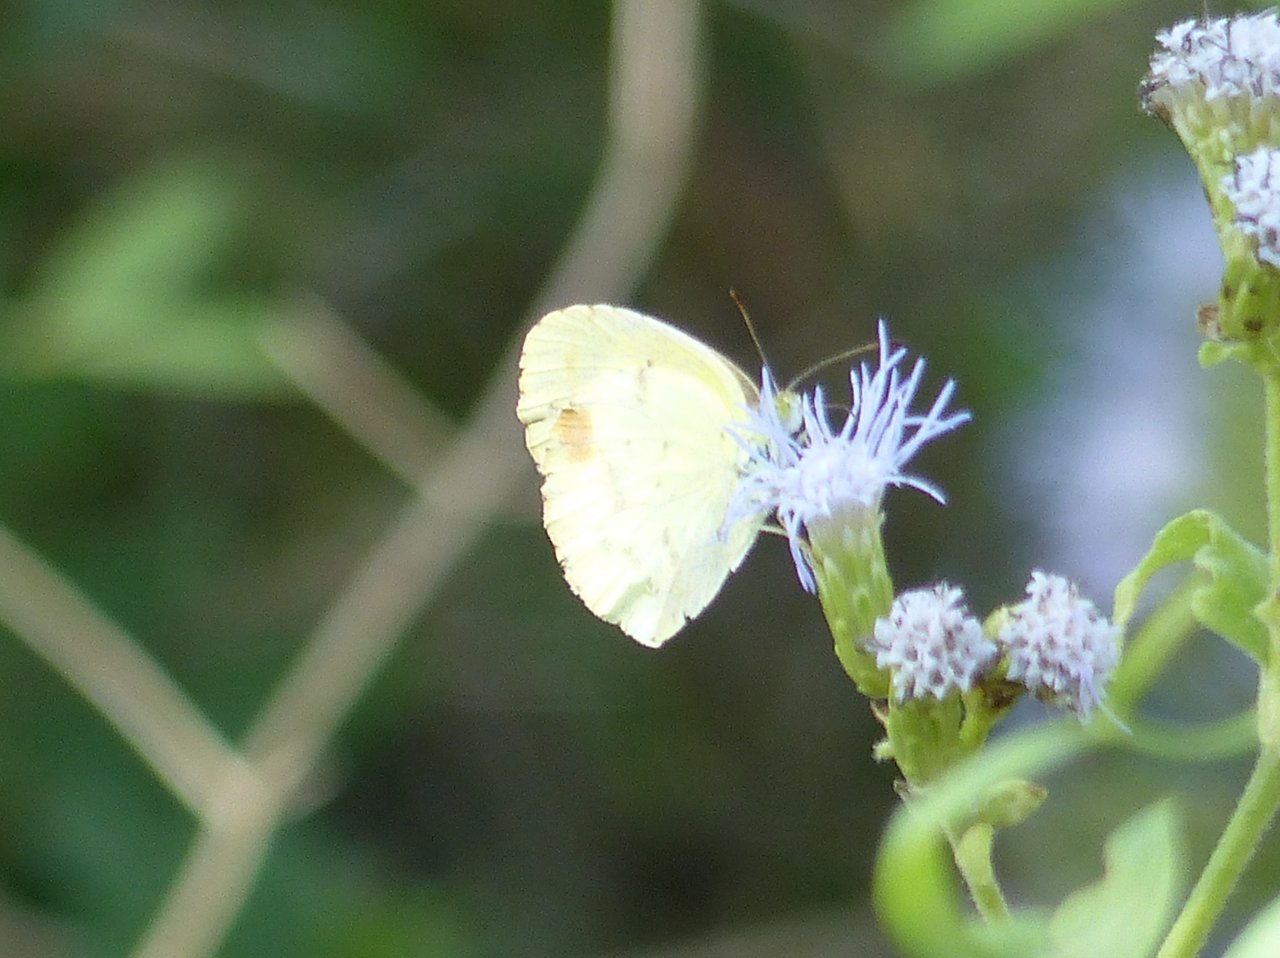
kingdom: Animalia
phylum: Arthropoda
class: Insecta
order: Lepidoptera
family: Pieridae
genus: Pyrisitia
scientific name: Pyrisitia nise
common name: Mimosa Yellow
